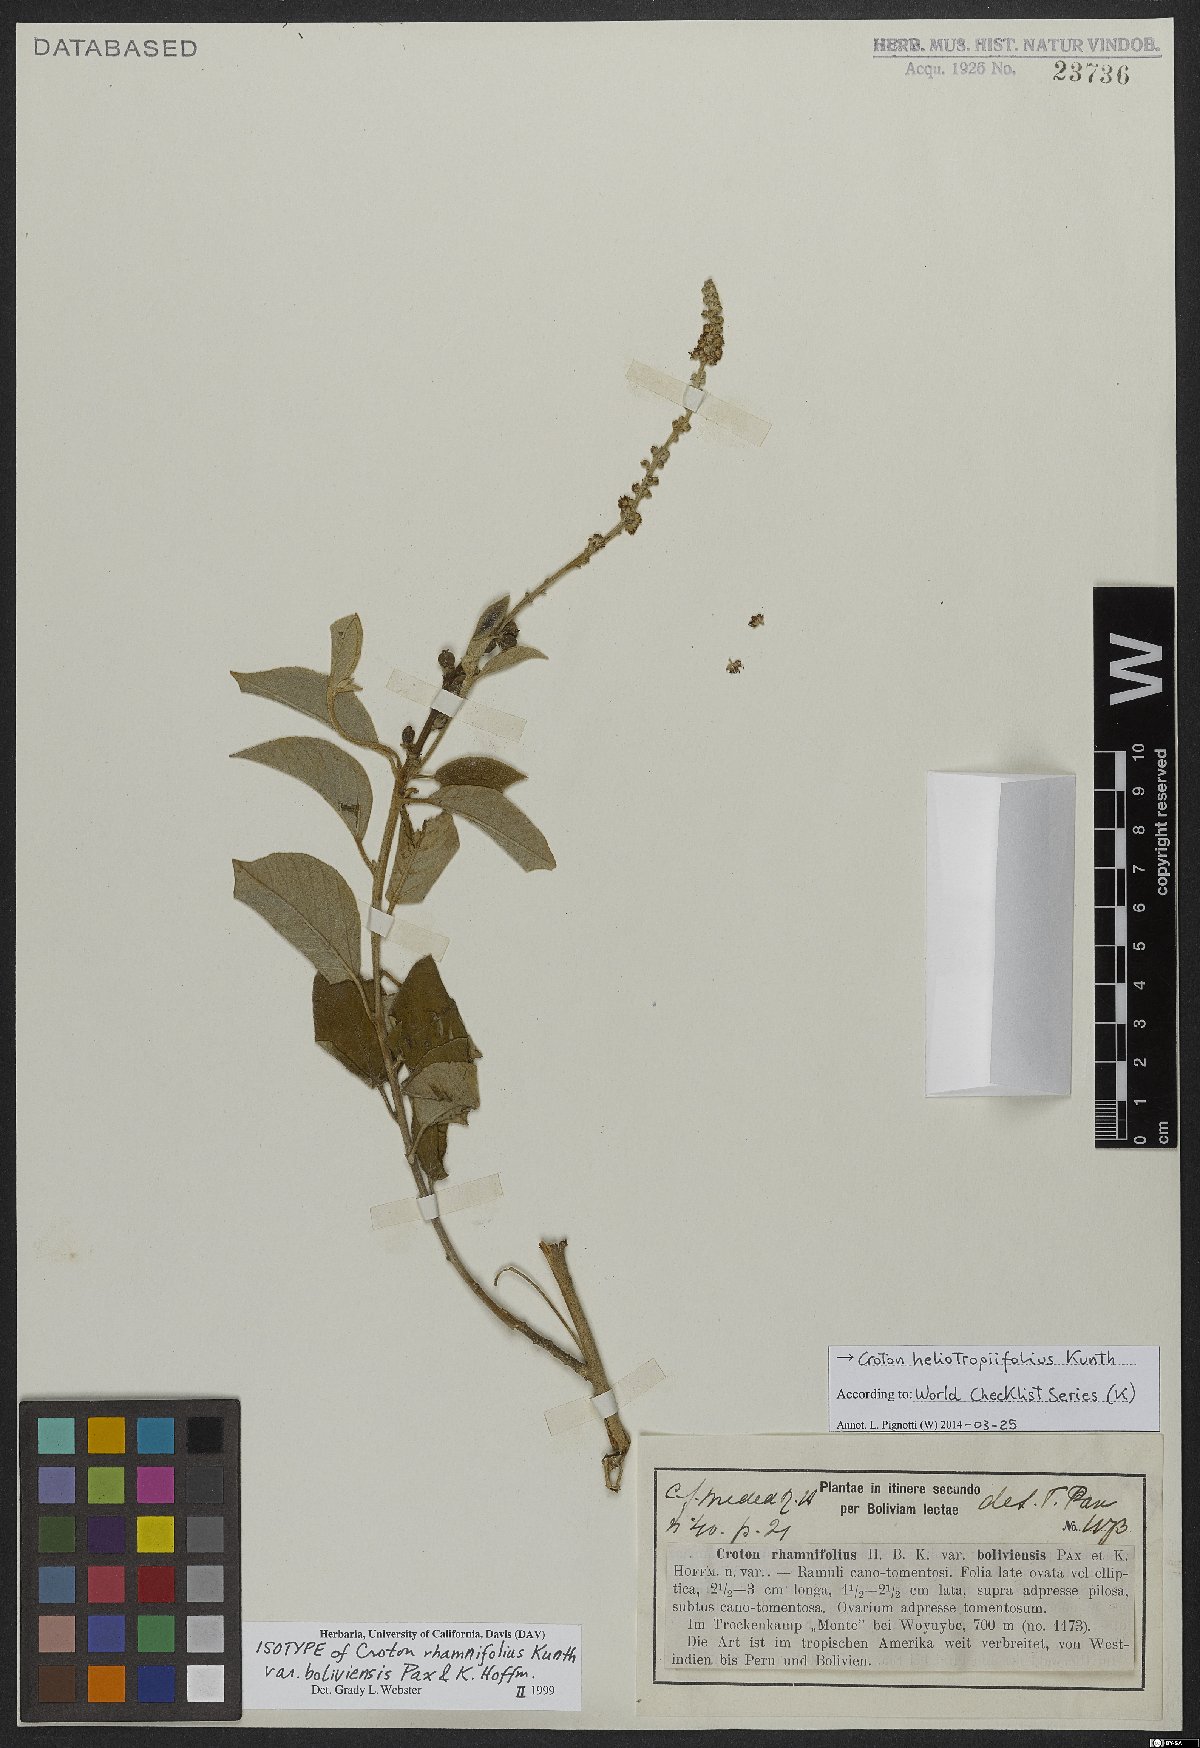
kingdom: Plantae
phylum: Tracheophyta
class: Magnoliopsida
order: Malpighiales
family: Euphorbiaceae
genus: Croton
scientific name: Croton heliotropiifolius
